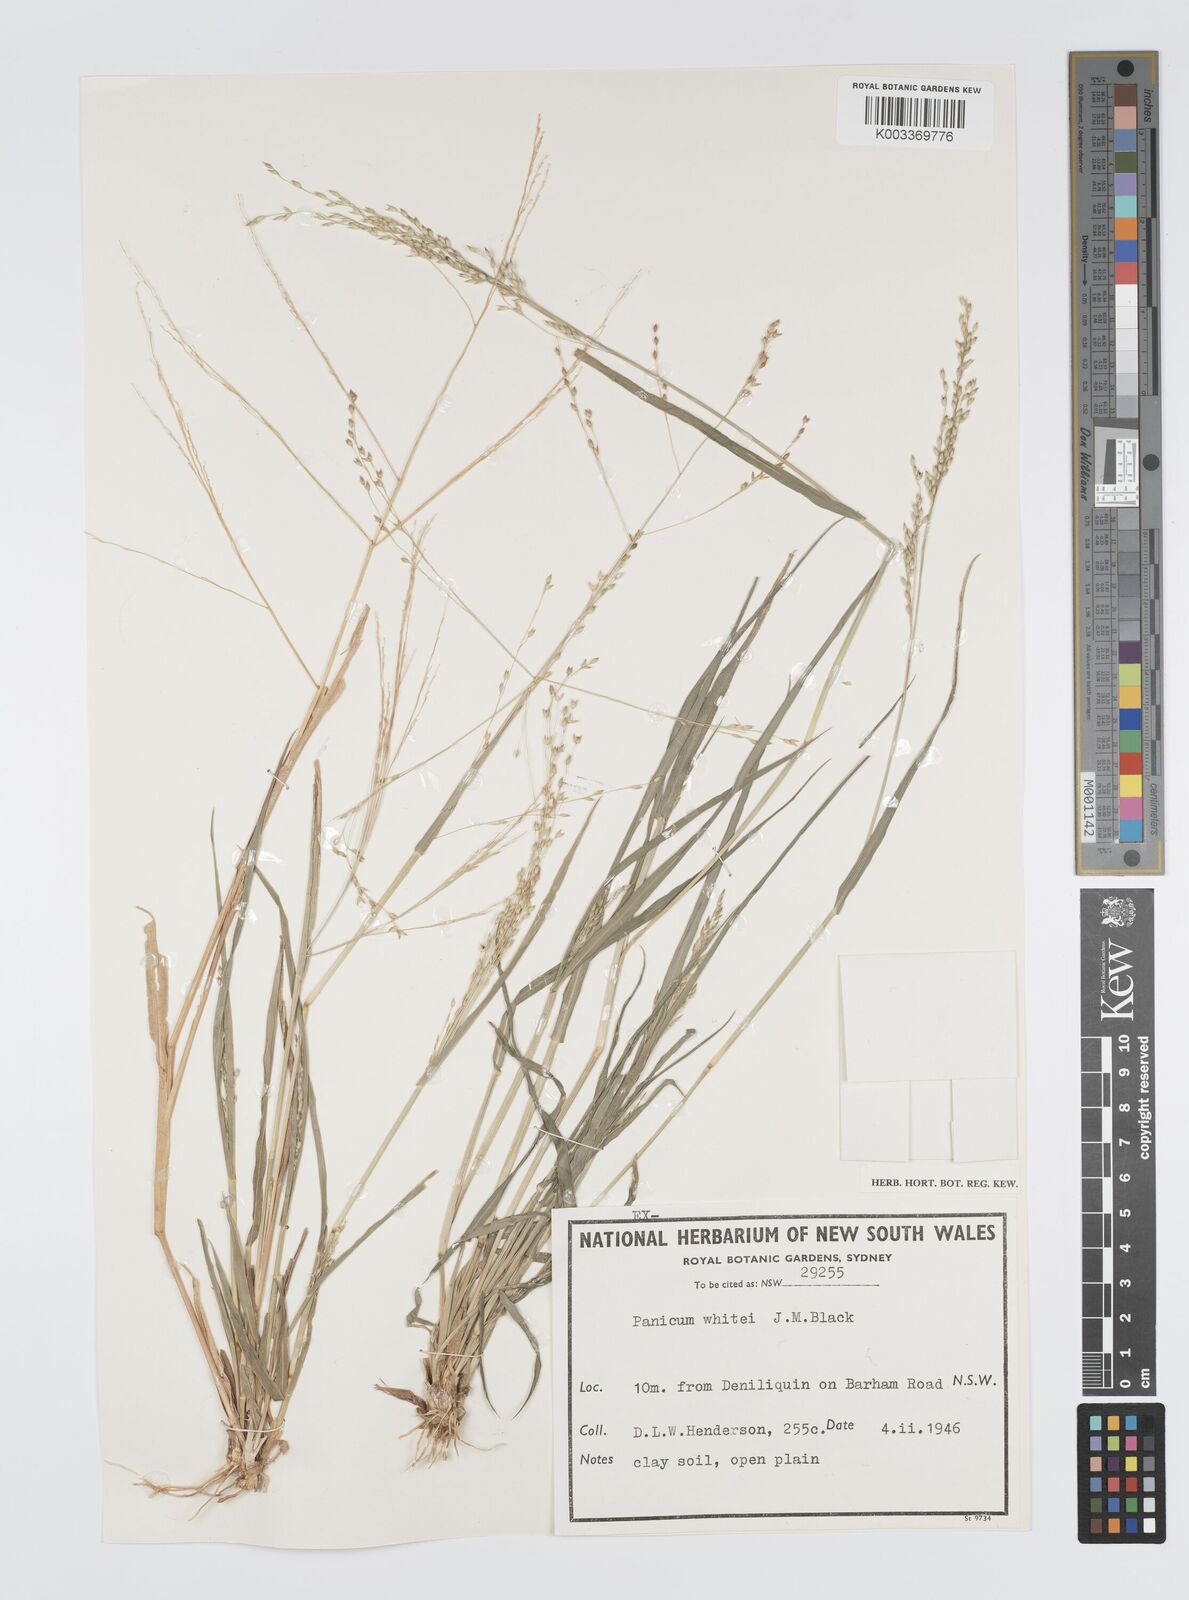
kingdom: Plantae
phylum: Tracheophyta
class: Liliopsida
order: Poales
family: Poaceae
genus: Panicum
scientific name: Panicum laevinode
